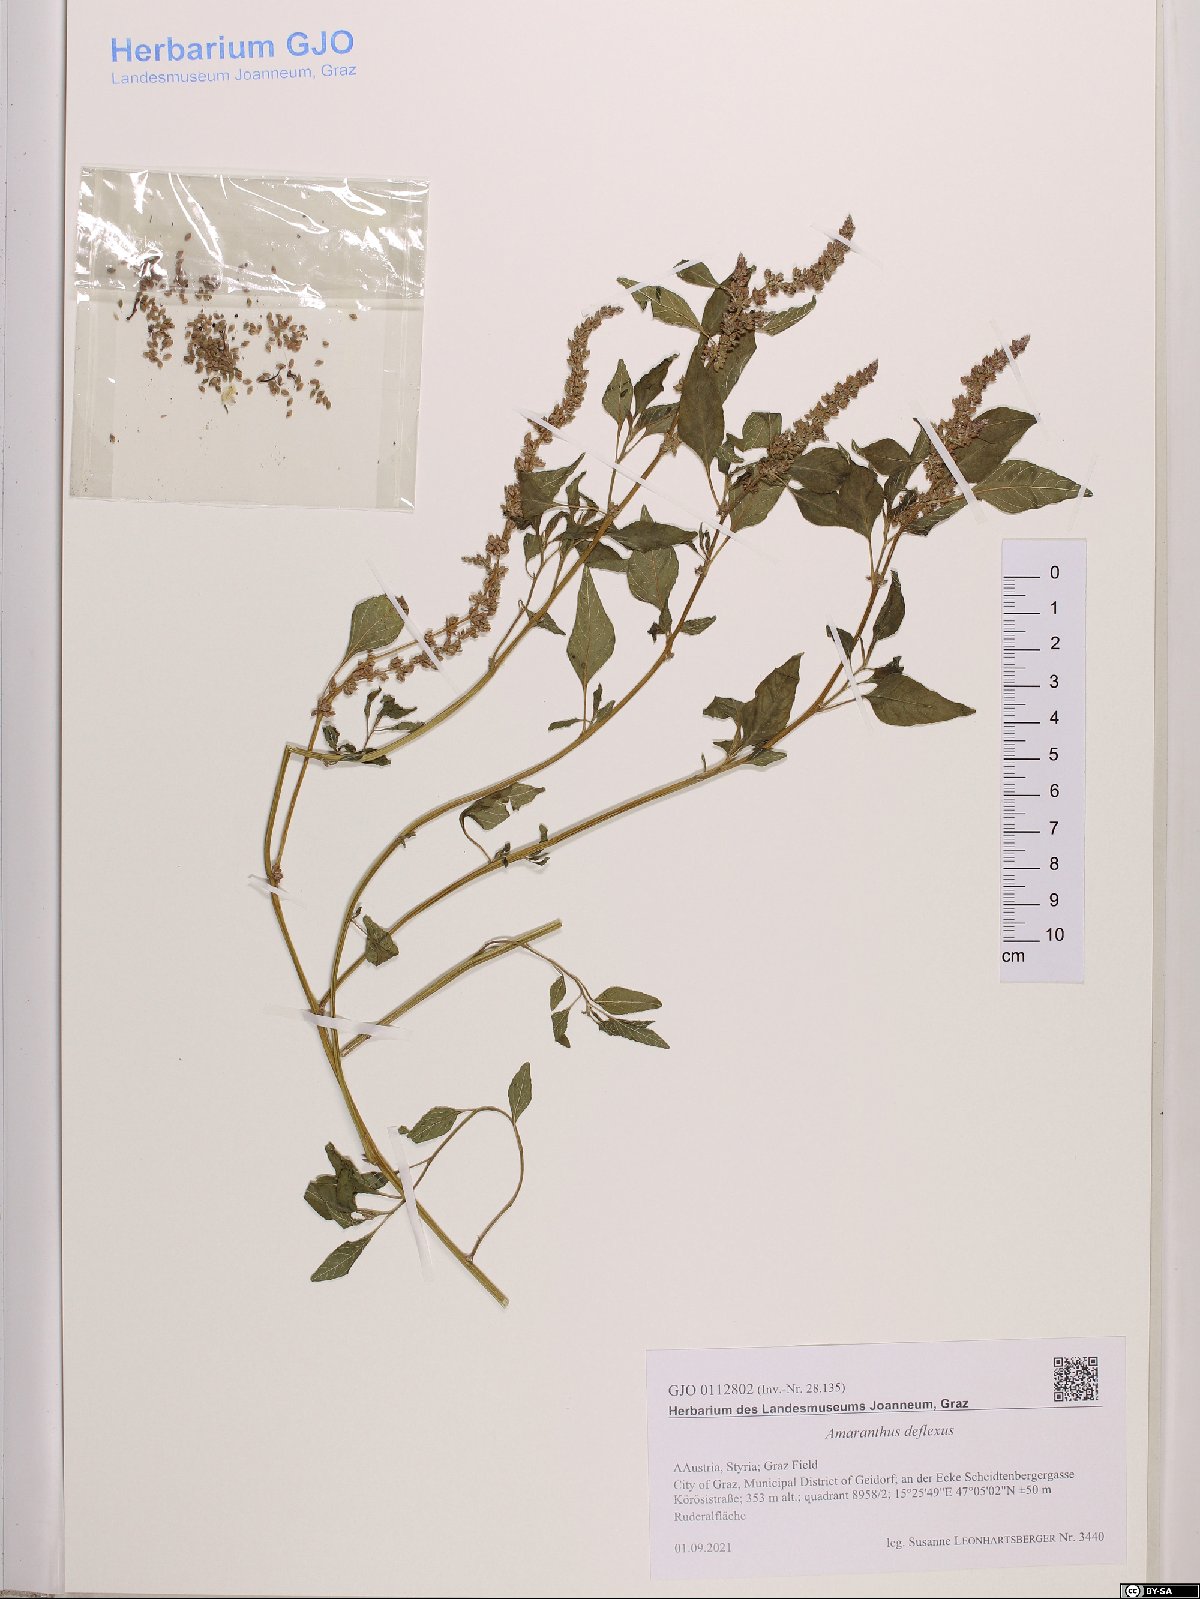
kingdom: Plantae
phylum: Tracheophyta
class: Magnoliopsida
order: Caryophyllales
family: Amaranthaceae
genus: Amaranthus
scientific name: Amaranthus deflexus
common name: Perennial pigweed
